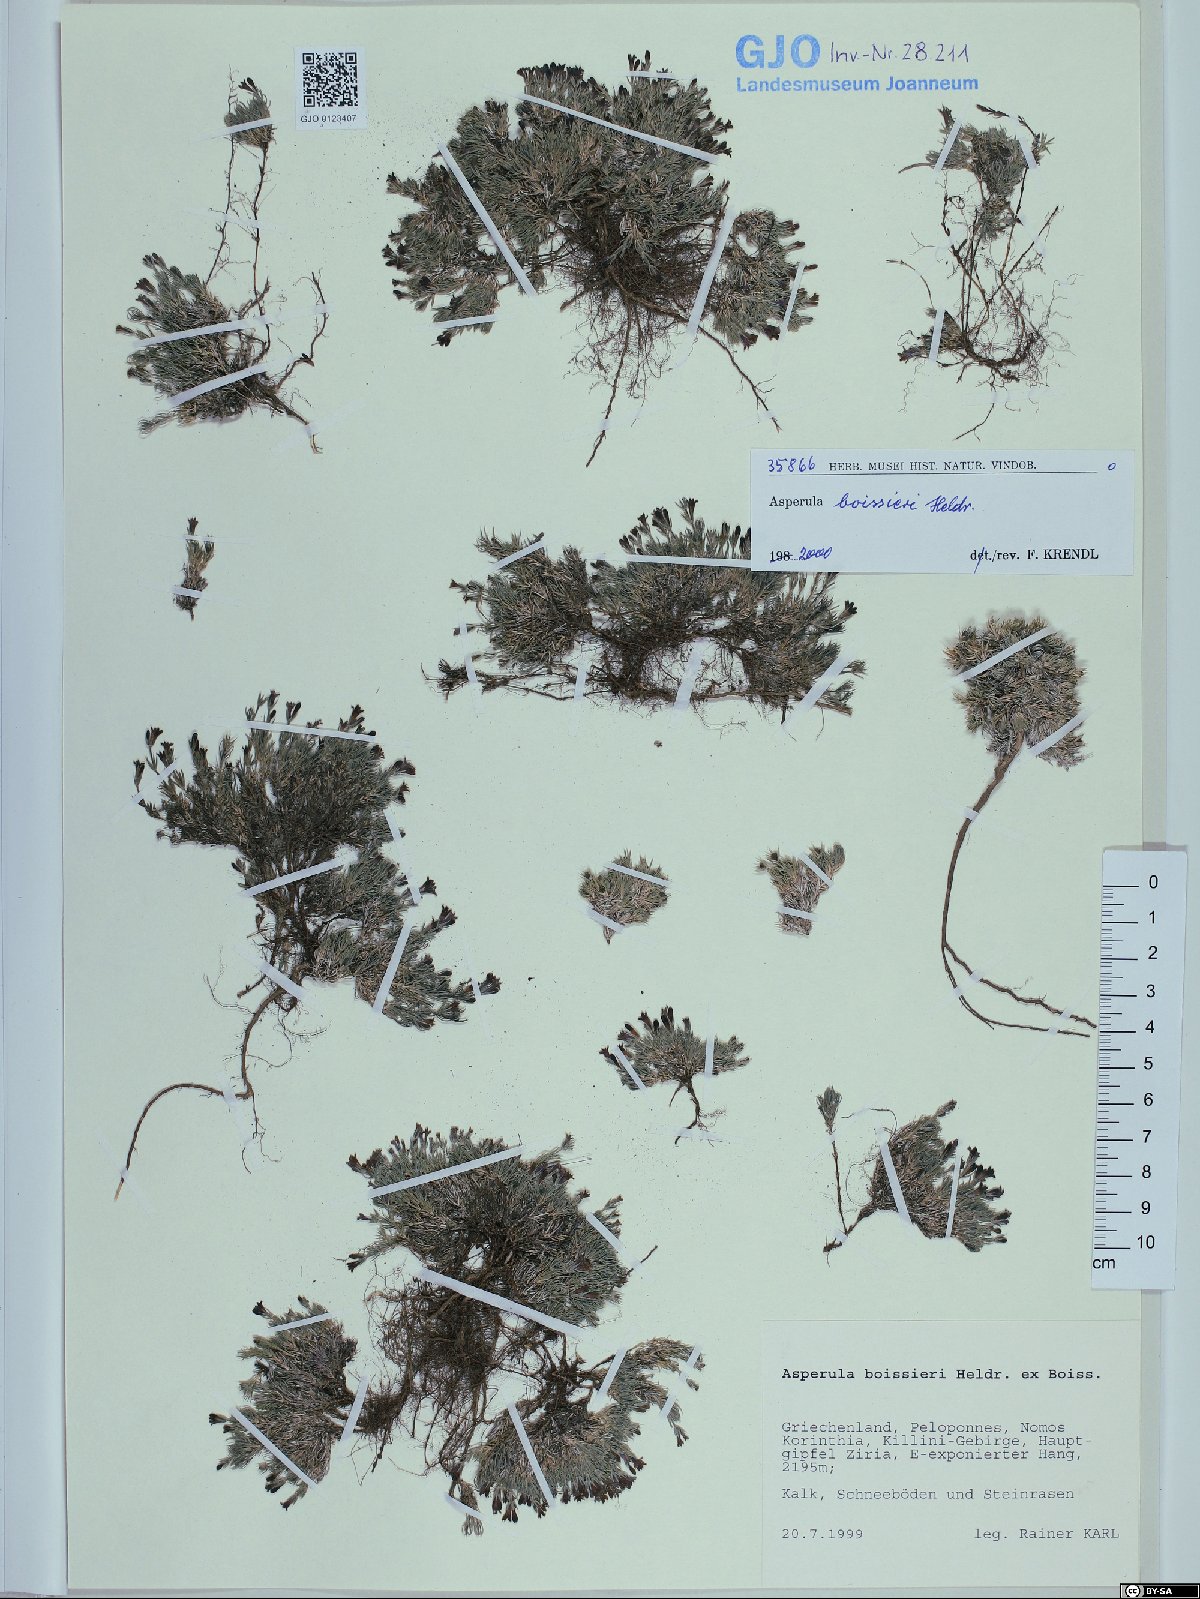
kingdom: Plantae
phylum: Tracheophyta
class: Magnoliopsida
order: Gentianales
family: Rubiaceae
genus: Cynanchica
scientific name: Cynanchica boissieri
